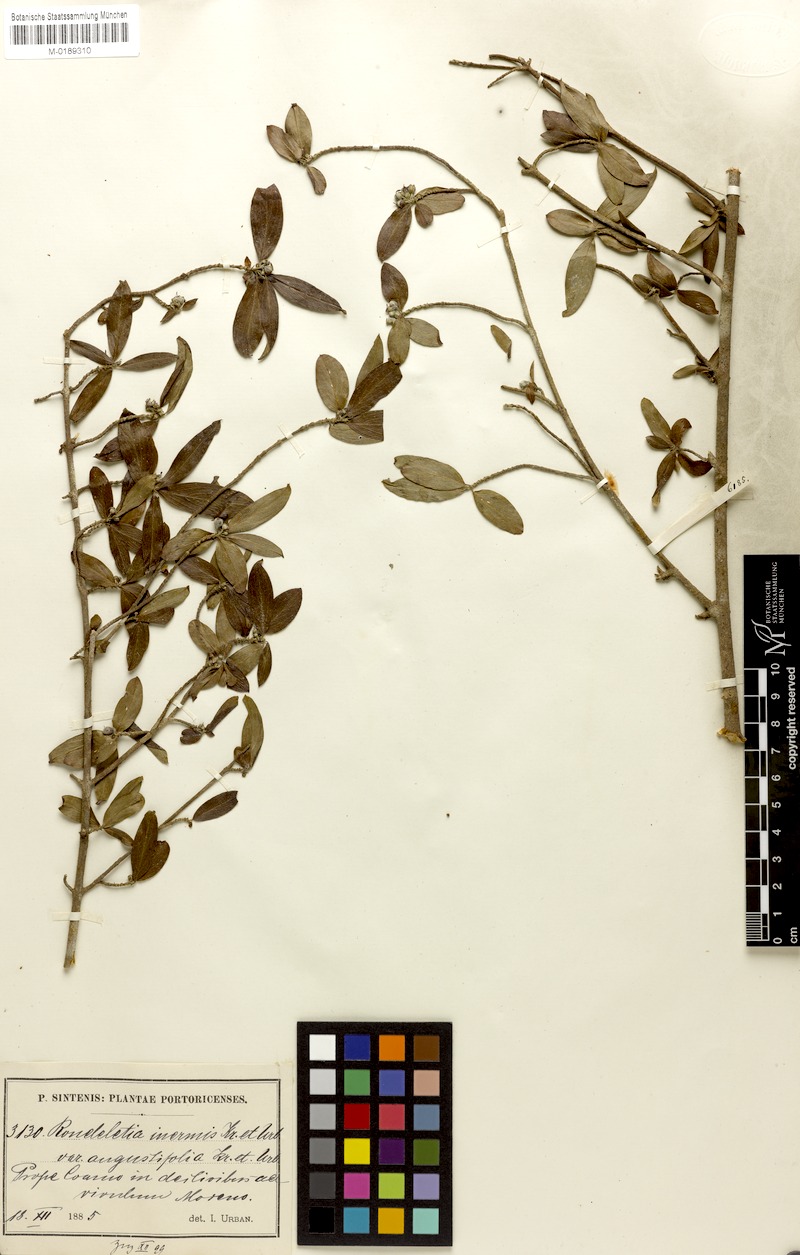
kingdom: Plantae
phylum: Tracheophyta
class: Magnoliopsida
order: Gentianales
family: Rubiaceae
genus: Rondeletia
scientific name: Rondeletia inermis
